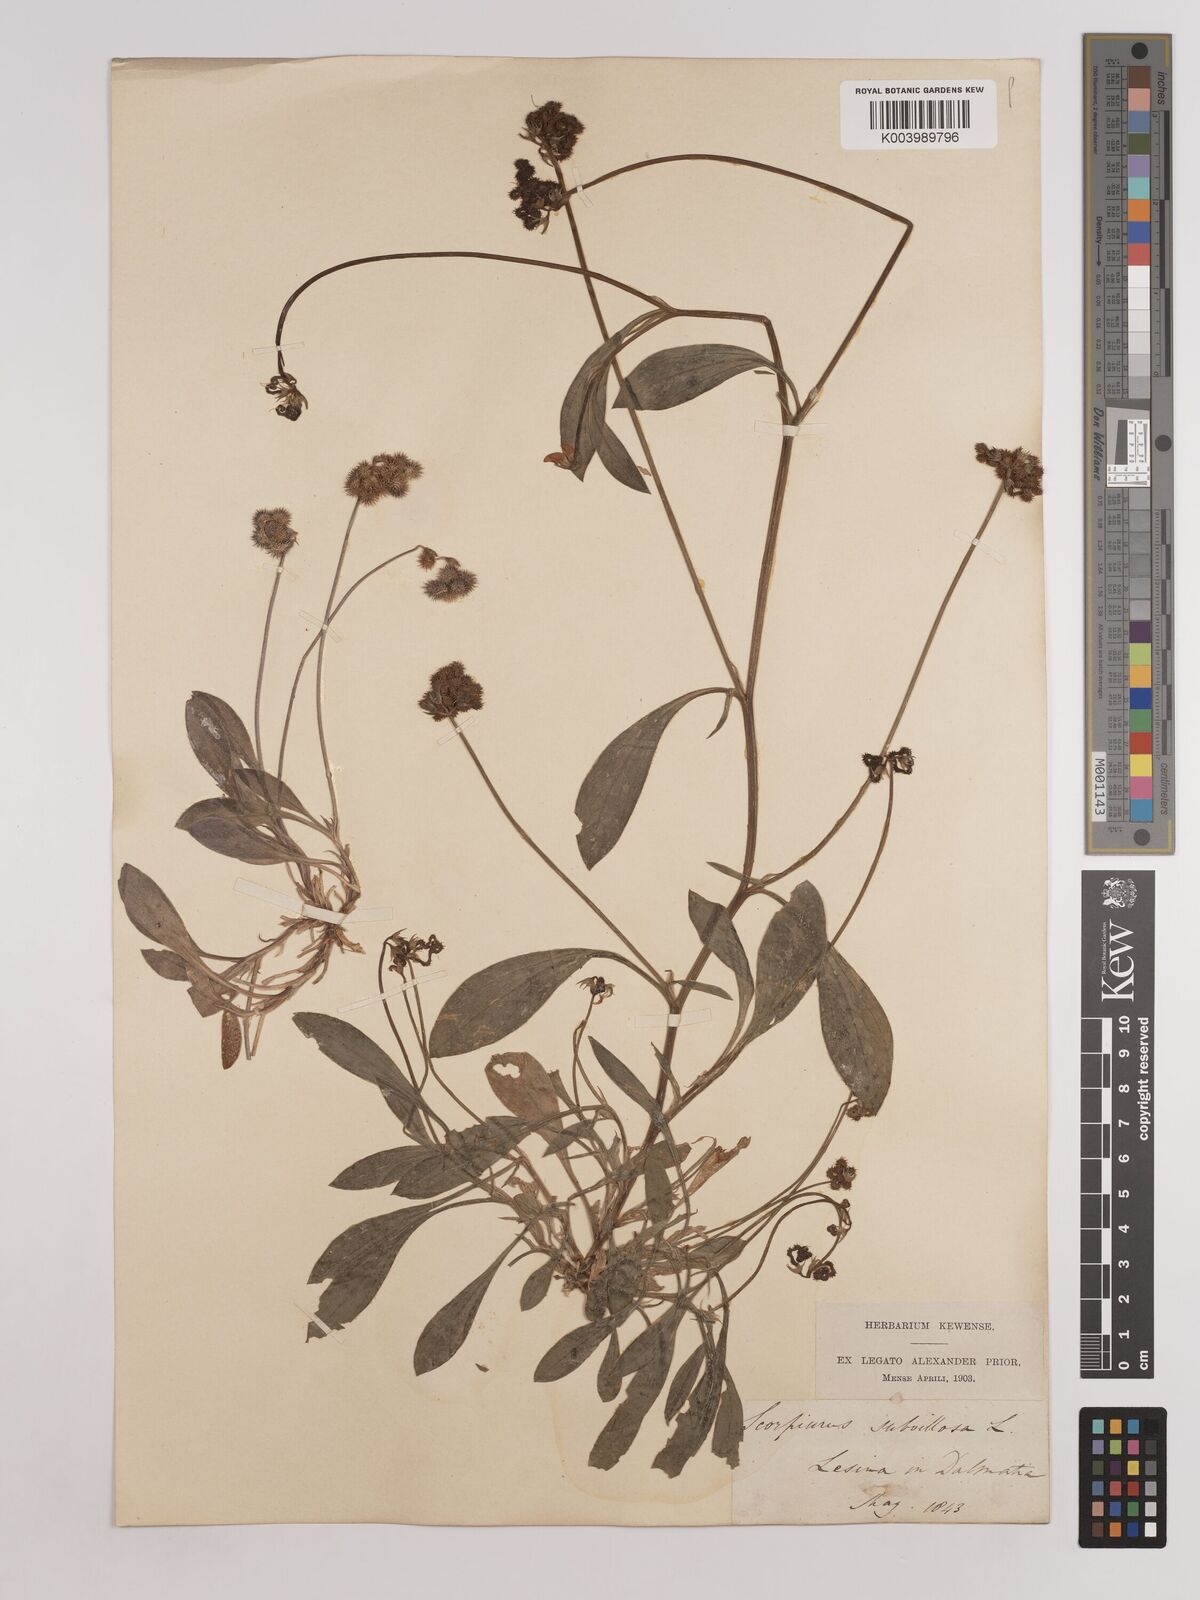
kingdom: Plantae
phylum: Tracheophyta
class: Magnoliopsida
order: Fabales
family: Fabaceae
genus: Scorpiurus
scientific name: Scorpiurus muricatus
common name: Caterpillar-plant
